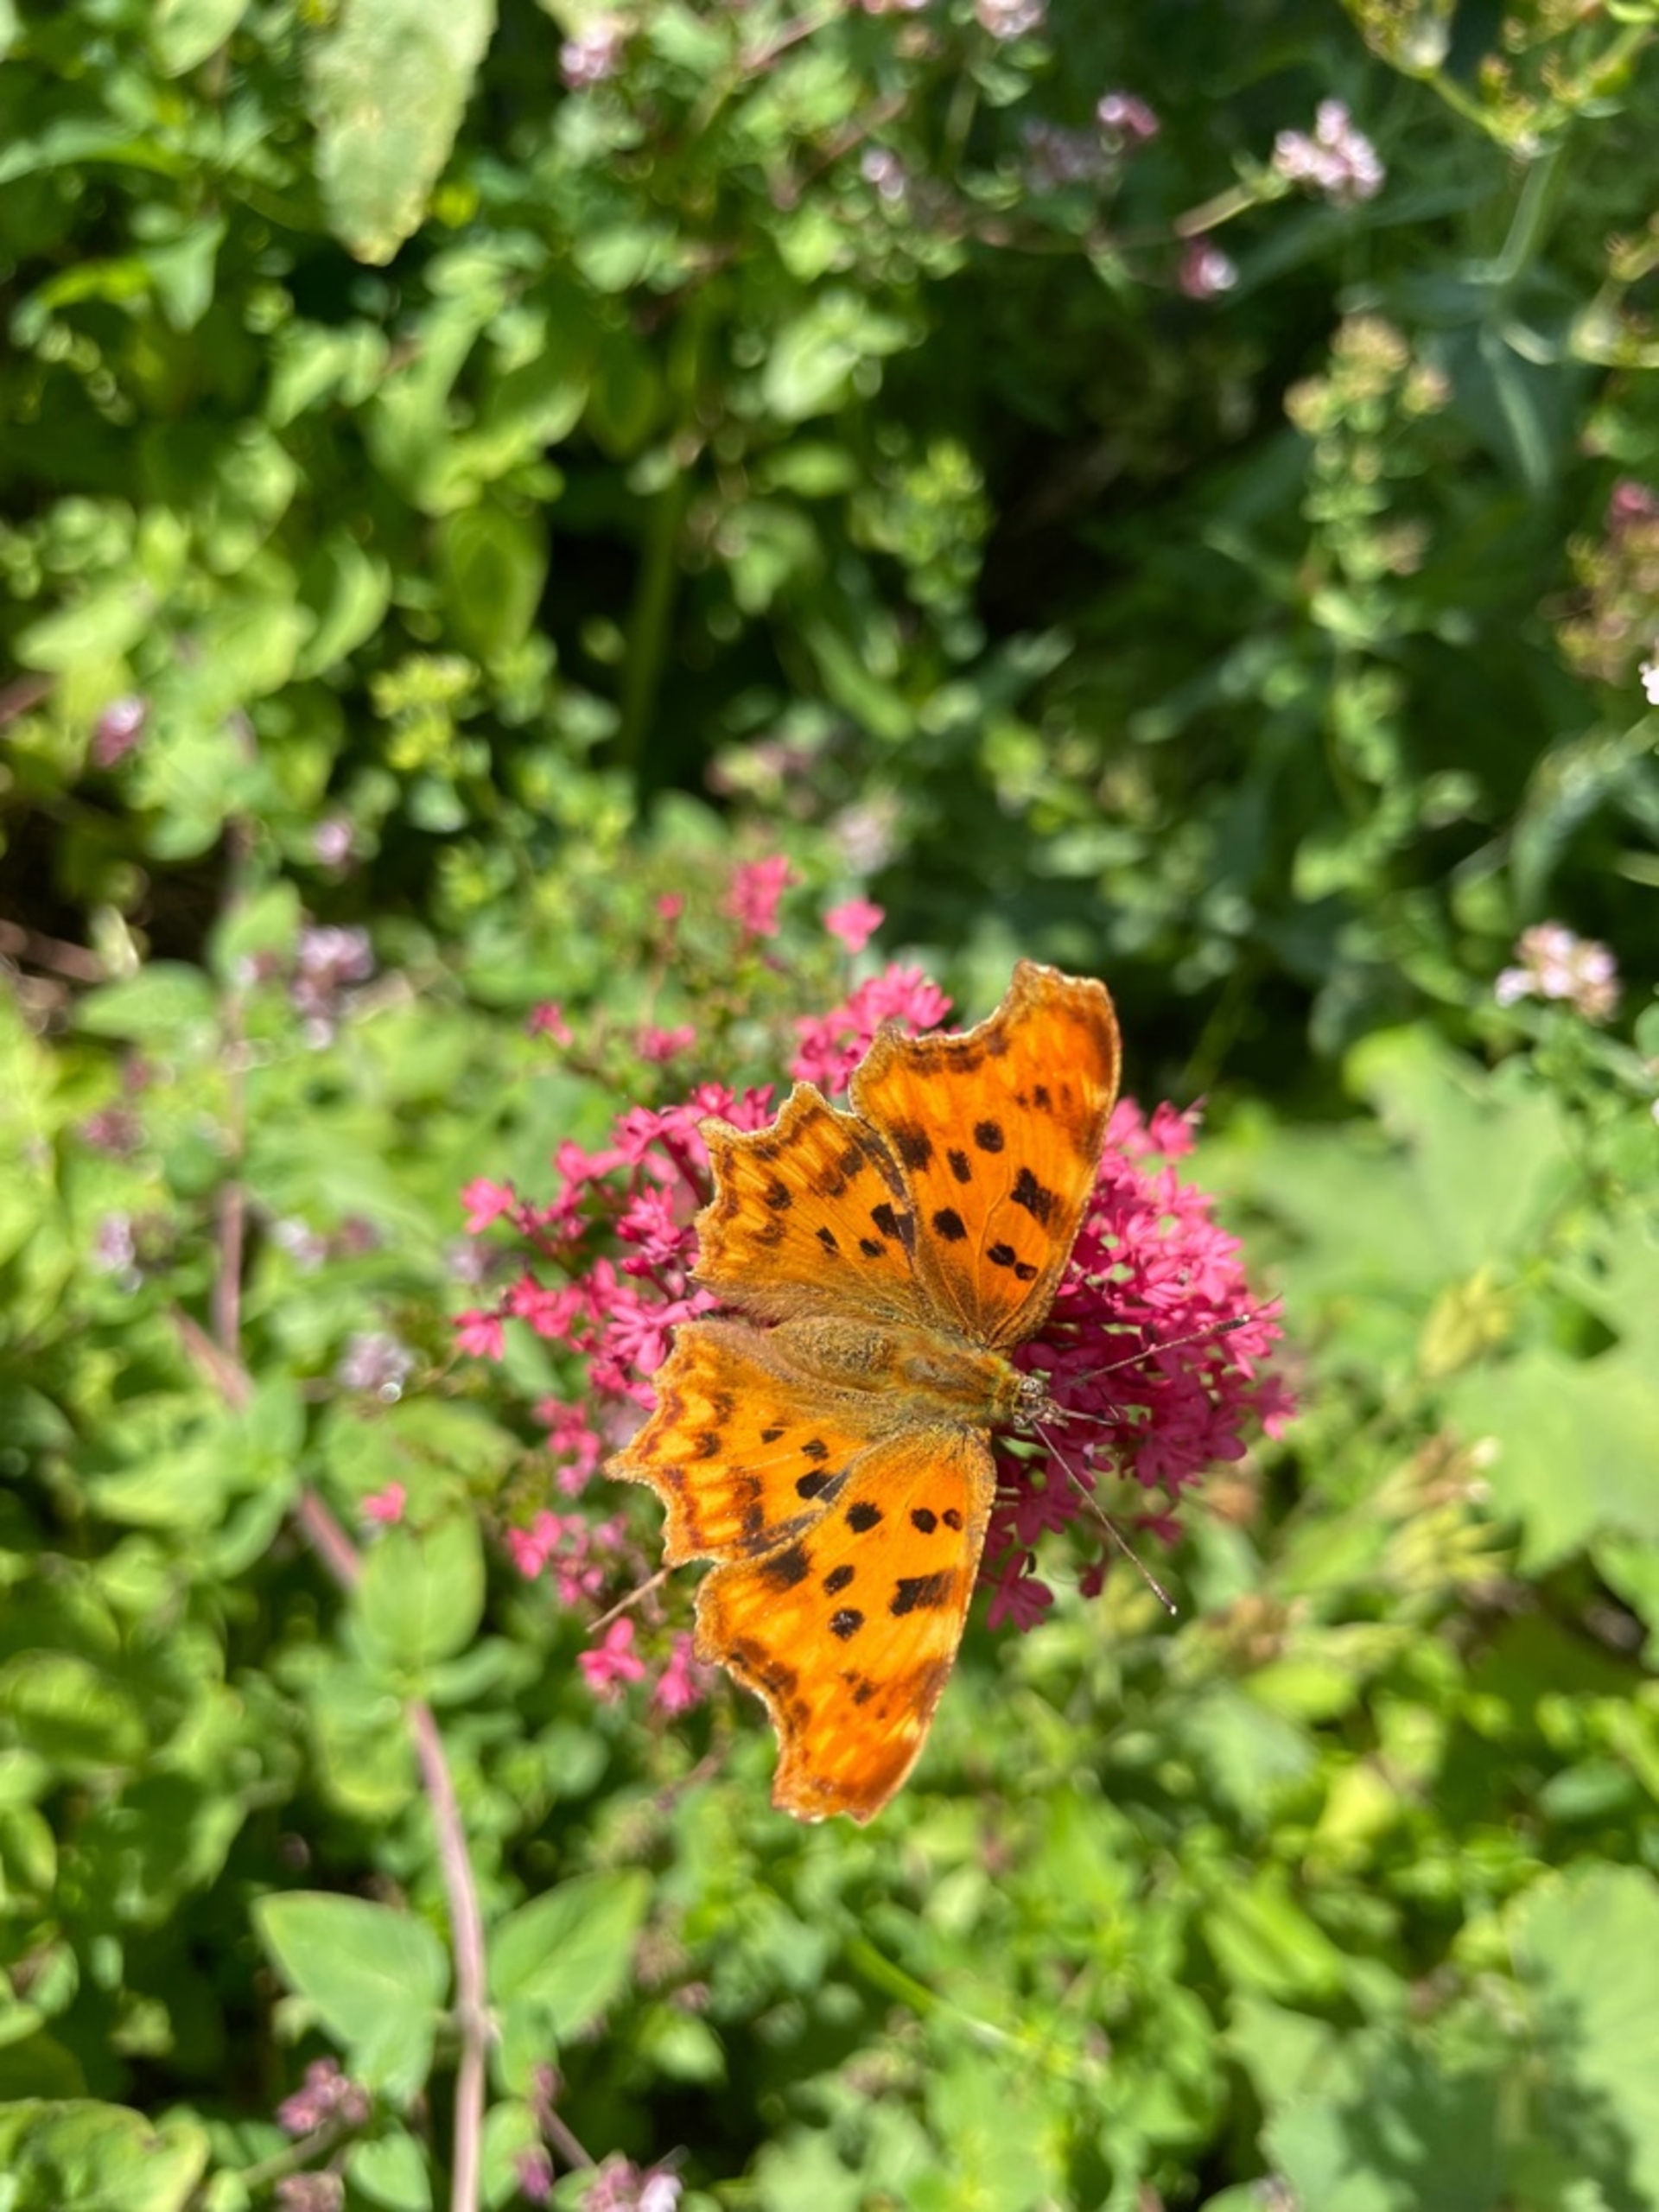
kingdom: Animalia
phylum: Arthropoda
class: Insecta
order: Lepidoptera
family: Nymphalidae
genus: Polygonia
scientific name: Polygonia c-album
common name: Det hvide C
